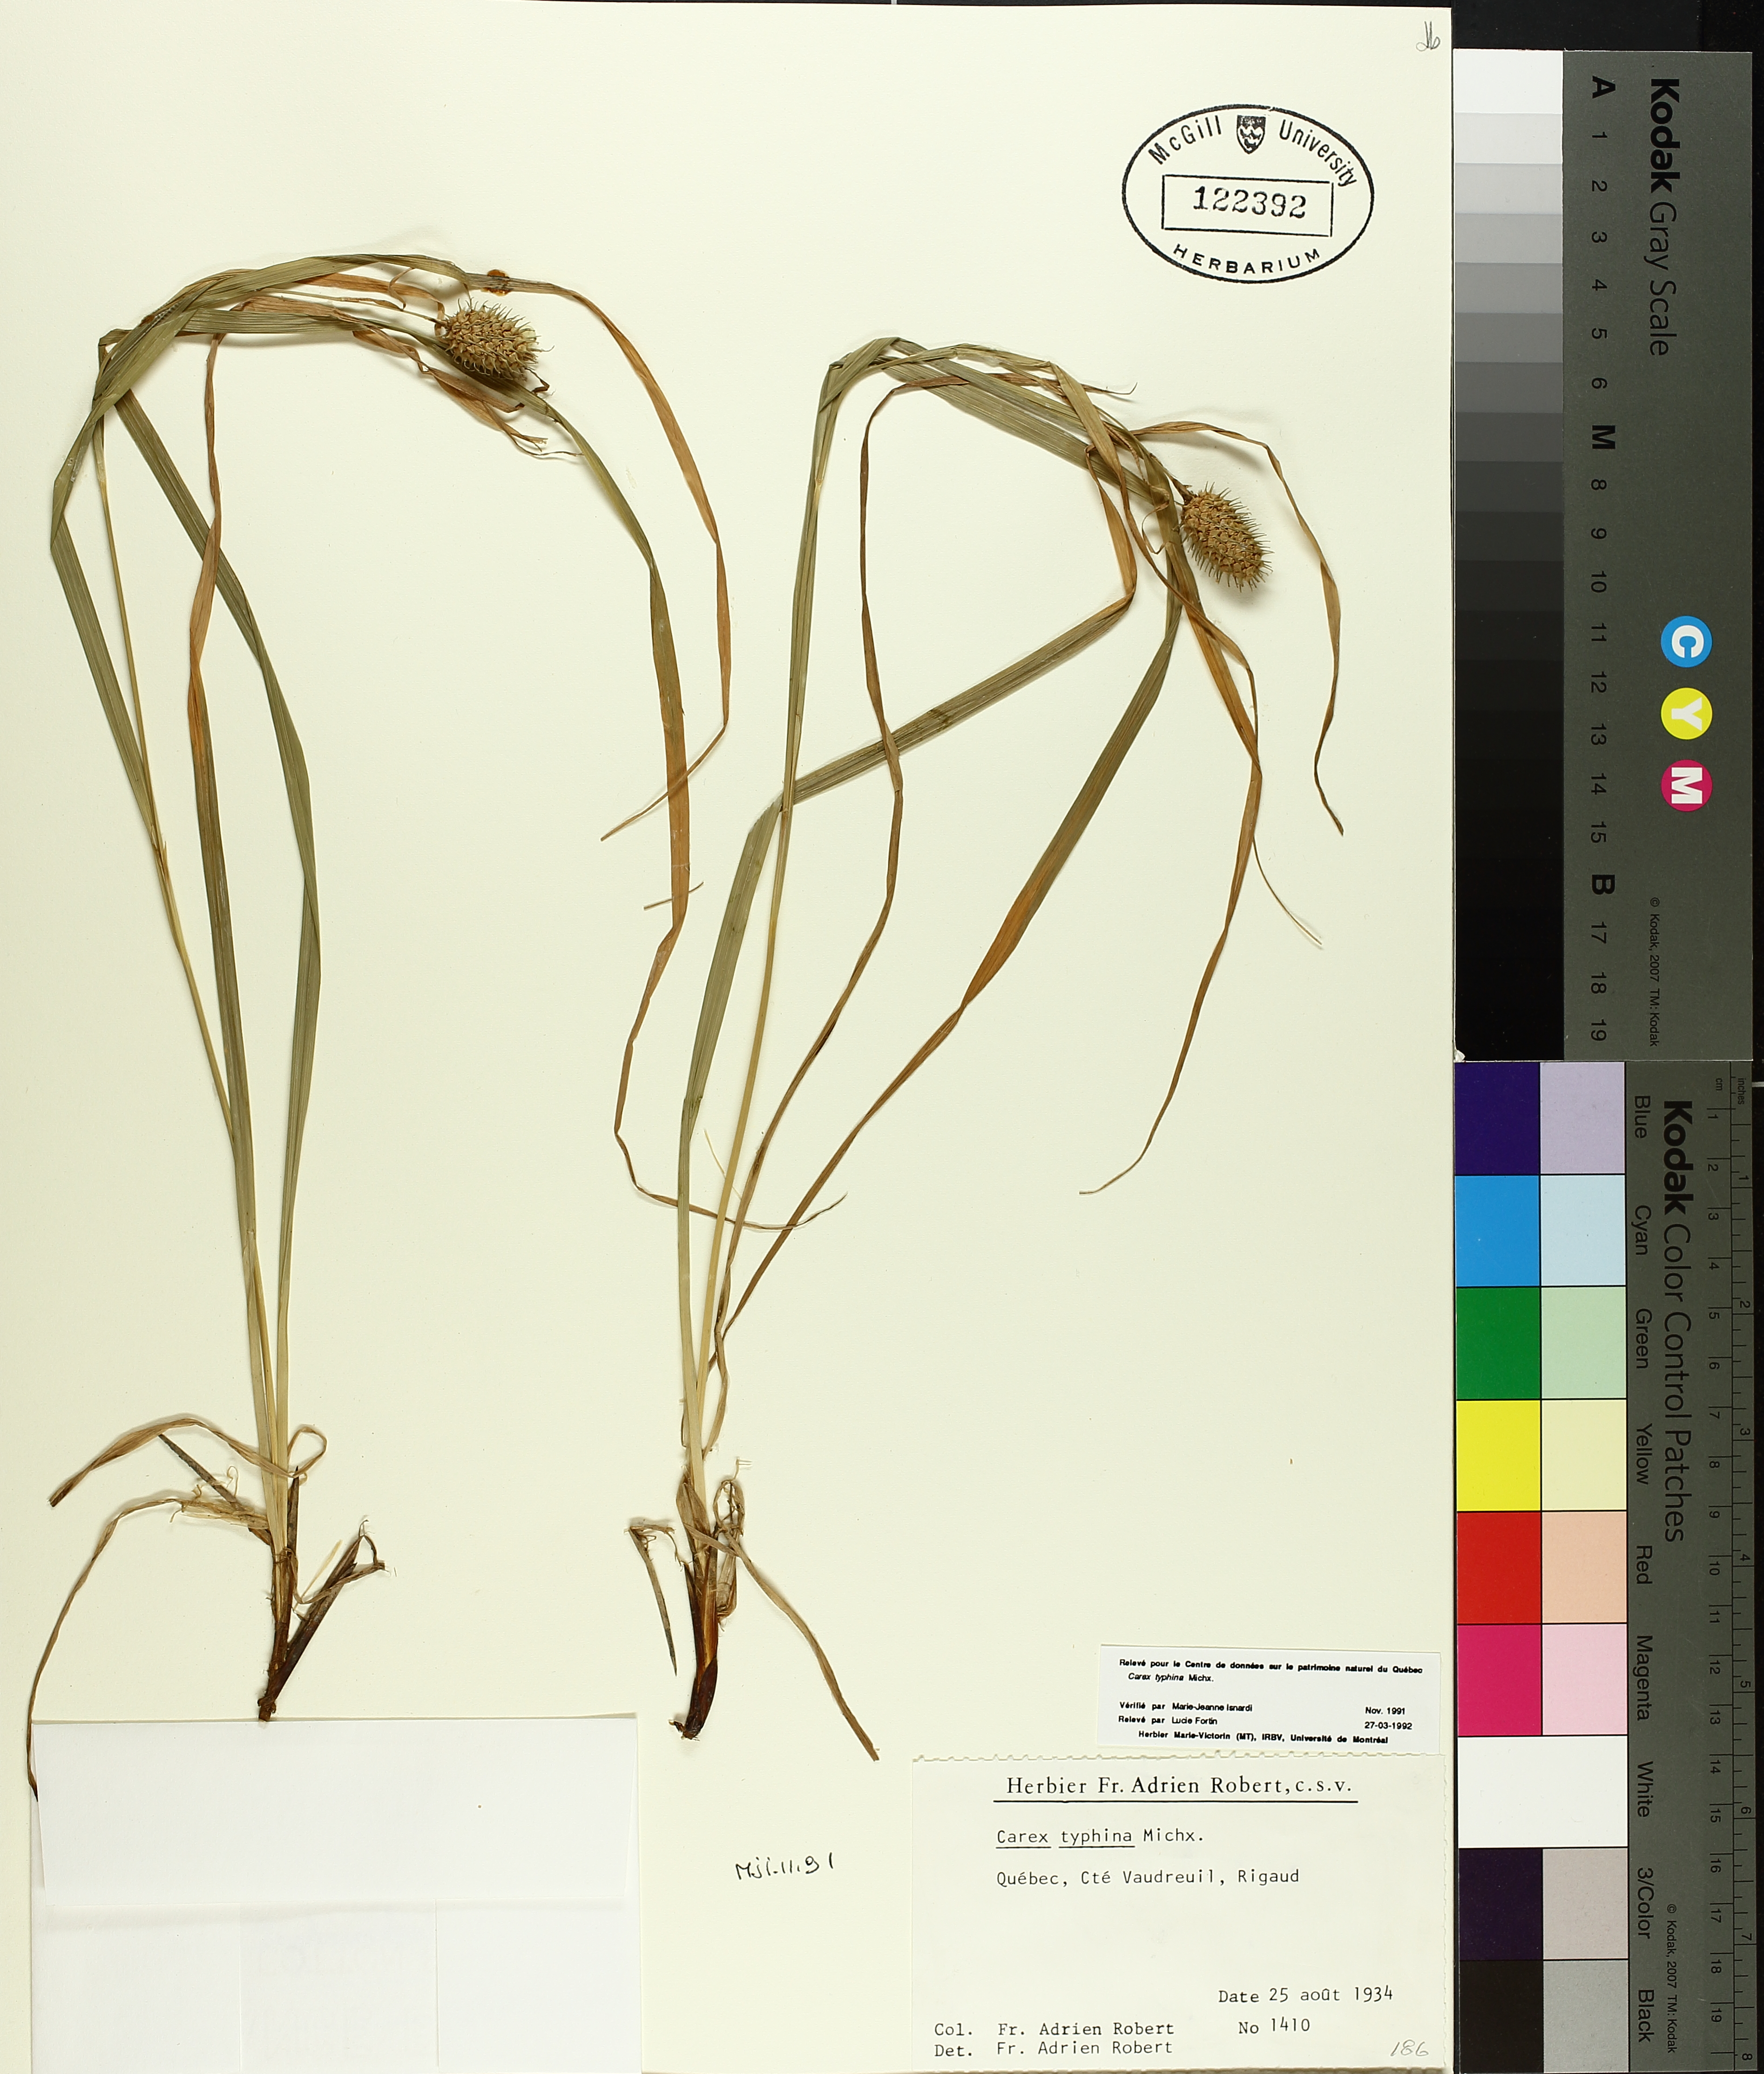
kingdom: Plantae
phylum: Tracheophyta
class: Liliopsida
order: Poales
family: Cyperaceae
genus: Carex
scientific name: Carex typhina
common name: Cattail sedge
